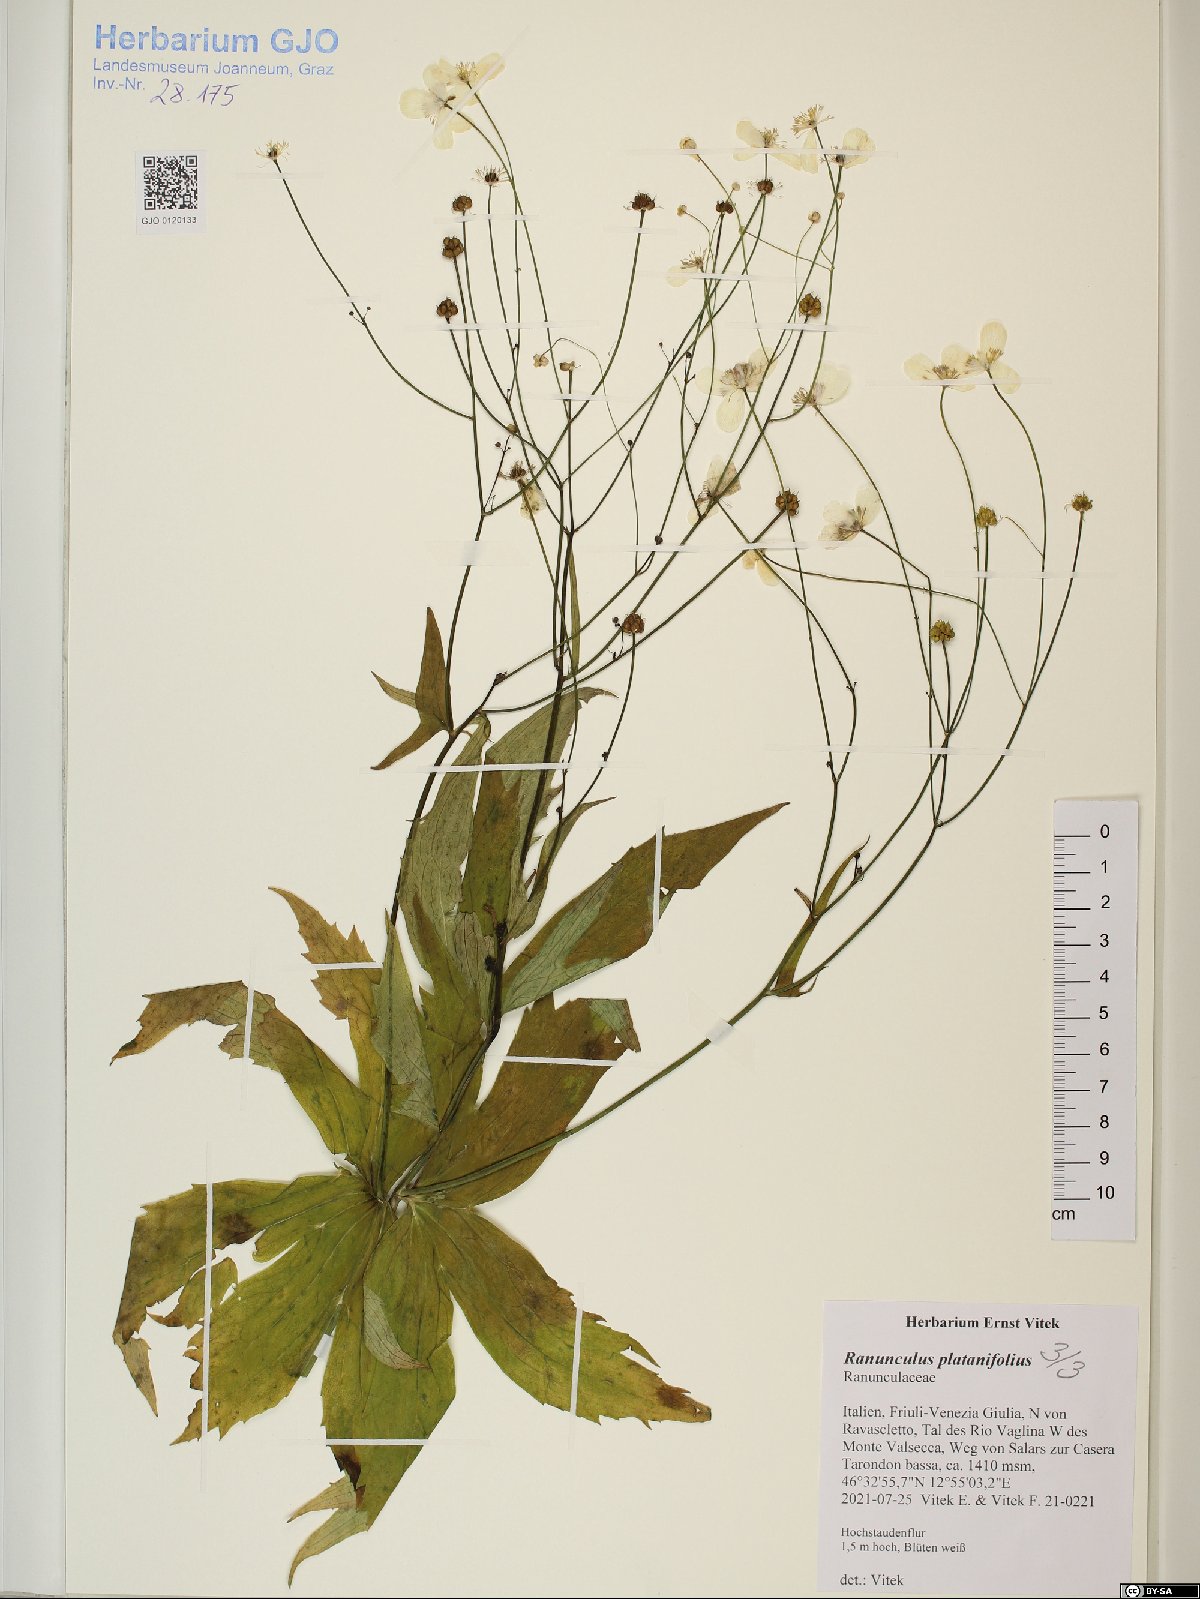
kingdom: Plantae
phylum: Tracheophyta
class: Magnoliopsida
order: Ranunculales
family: Ranunculaceae
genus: Ranunculus
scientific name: Ranunculus platanifolius
